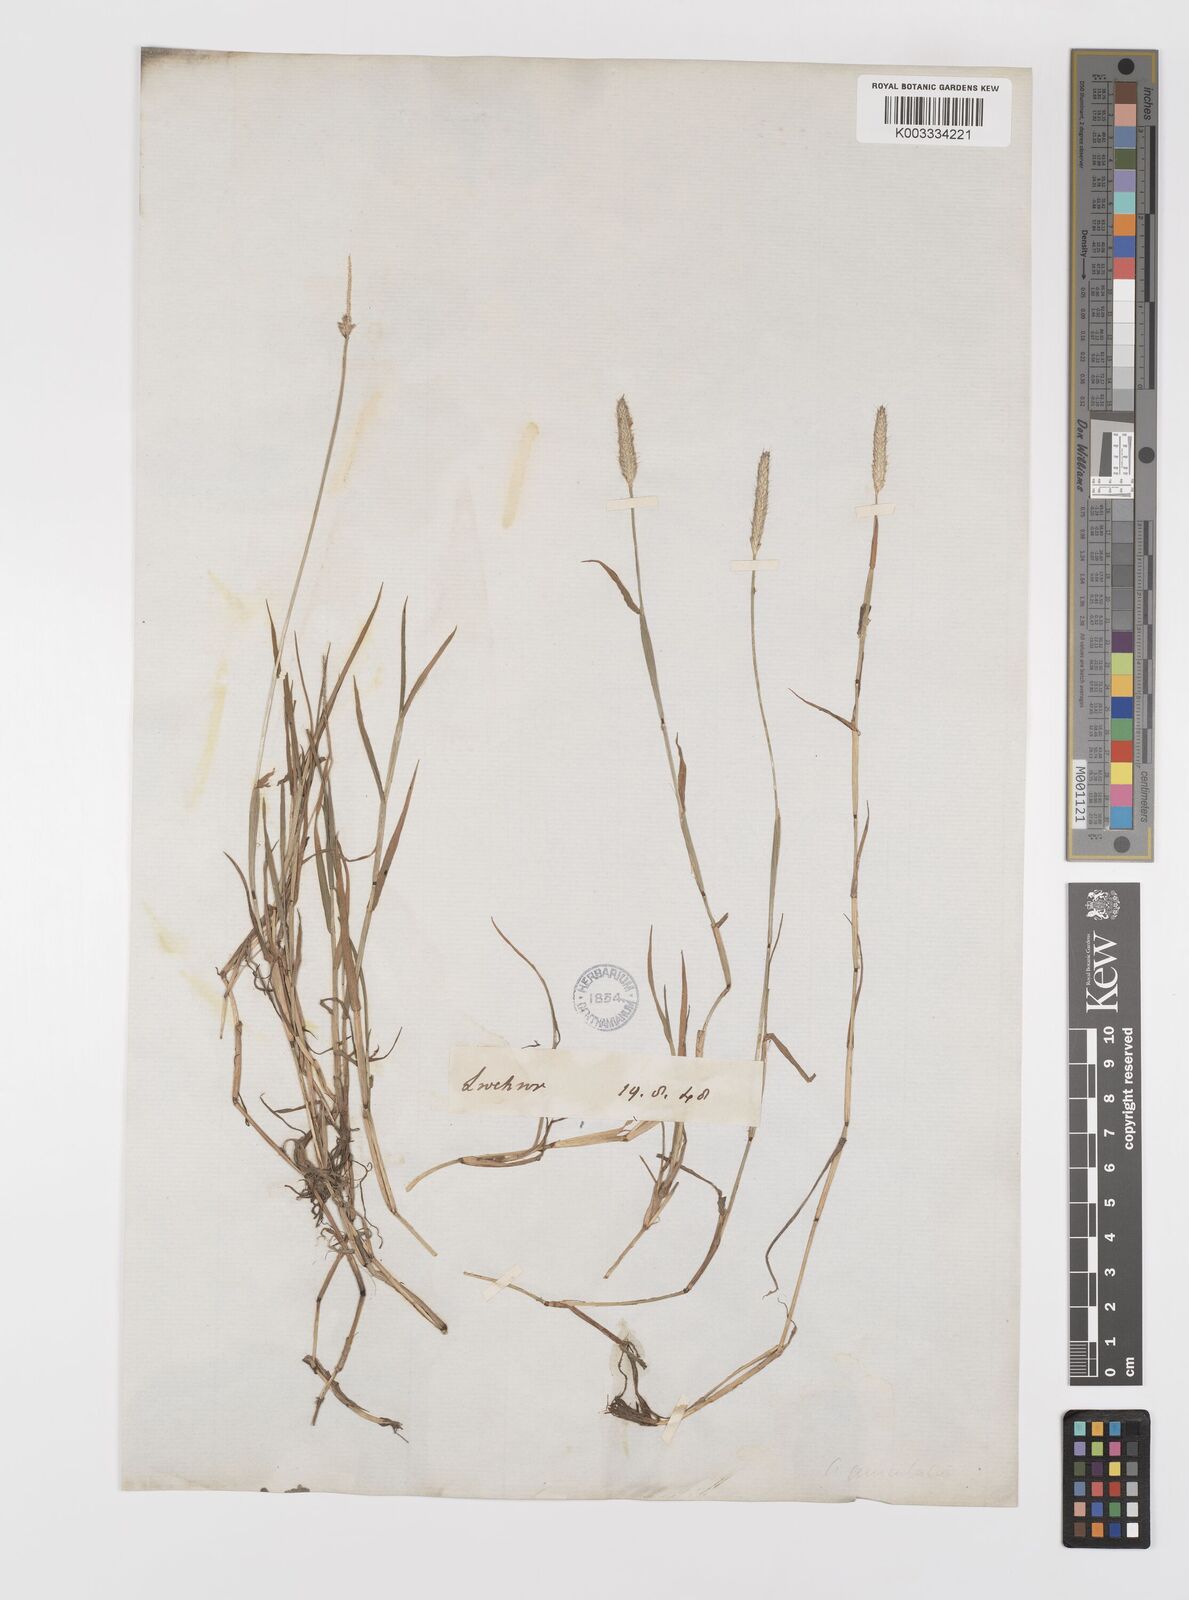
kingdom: Plantae
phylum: Tracheophyta
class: Liliopsida
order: Poales
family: Poaceae
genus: Alopecurus
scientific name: Alopecurus geniculatus
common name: Water foxtail
